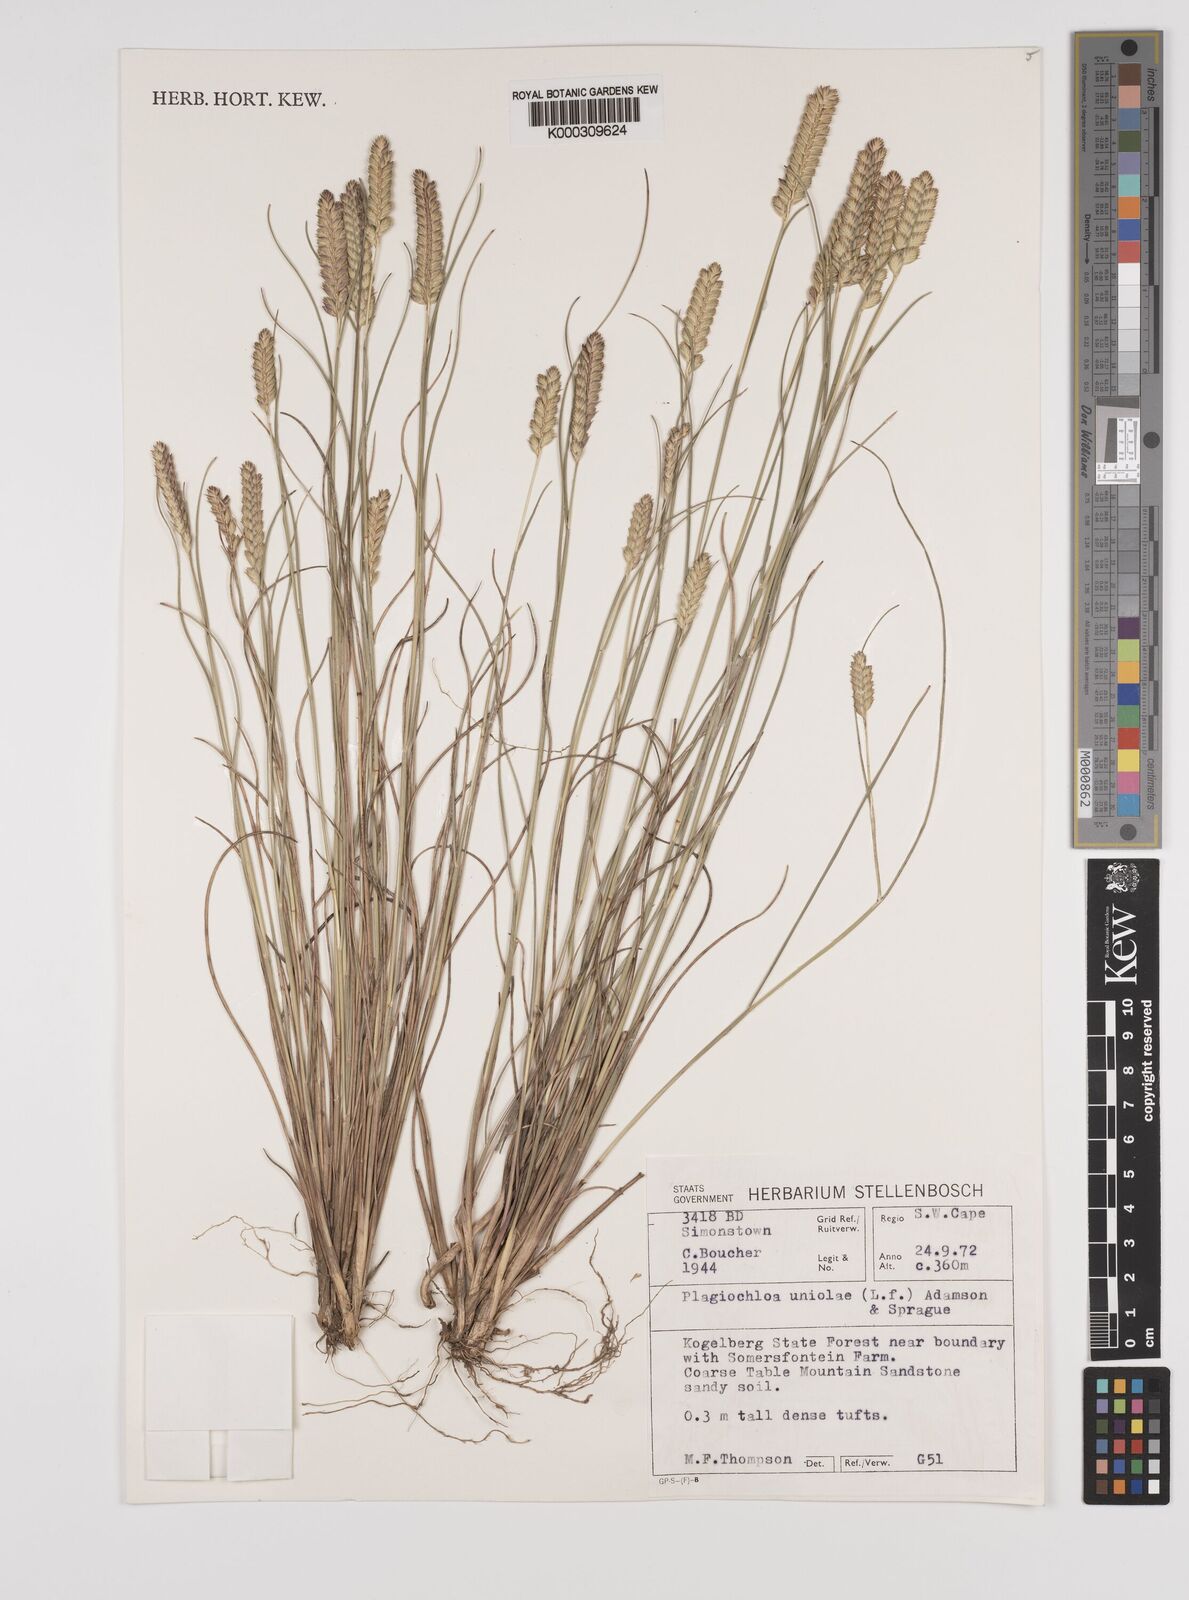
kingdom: Plantae
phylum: Tracheophyta
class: Liliopsida
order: Poales
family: Poaceae
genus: Tribolium
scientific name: Tribolium uniolae
